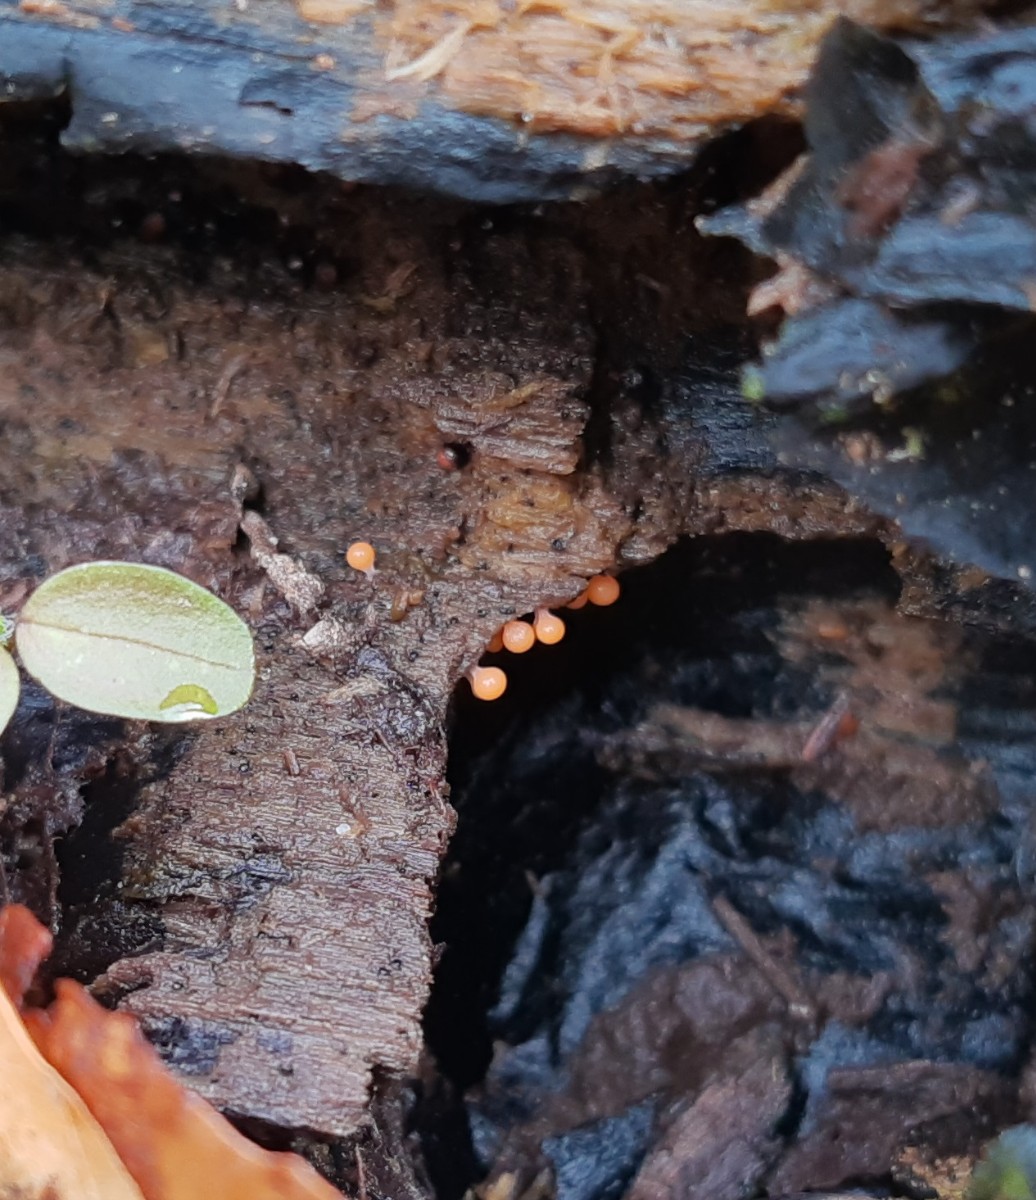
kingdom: Protozoa
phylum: Mycetozoa
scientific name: Mycetozoa
